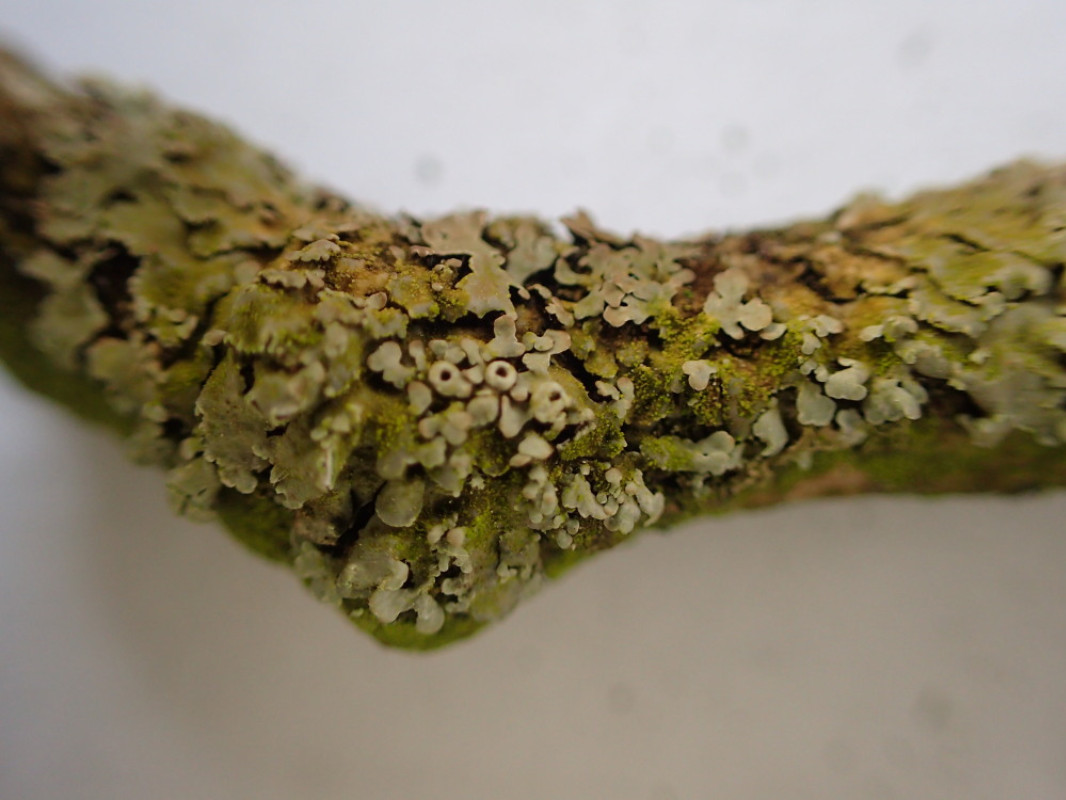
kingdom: Fungi
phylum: Ascomycota
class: Lecanoromycetes
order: Caliciales
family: Physciaceae
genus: Phaeophyscia
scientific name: Phaeophyscia orbicularis
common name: grågrøn rosetlav
